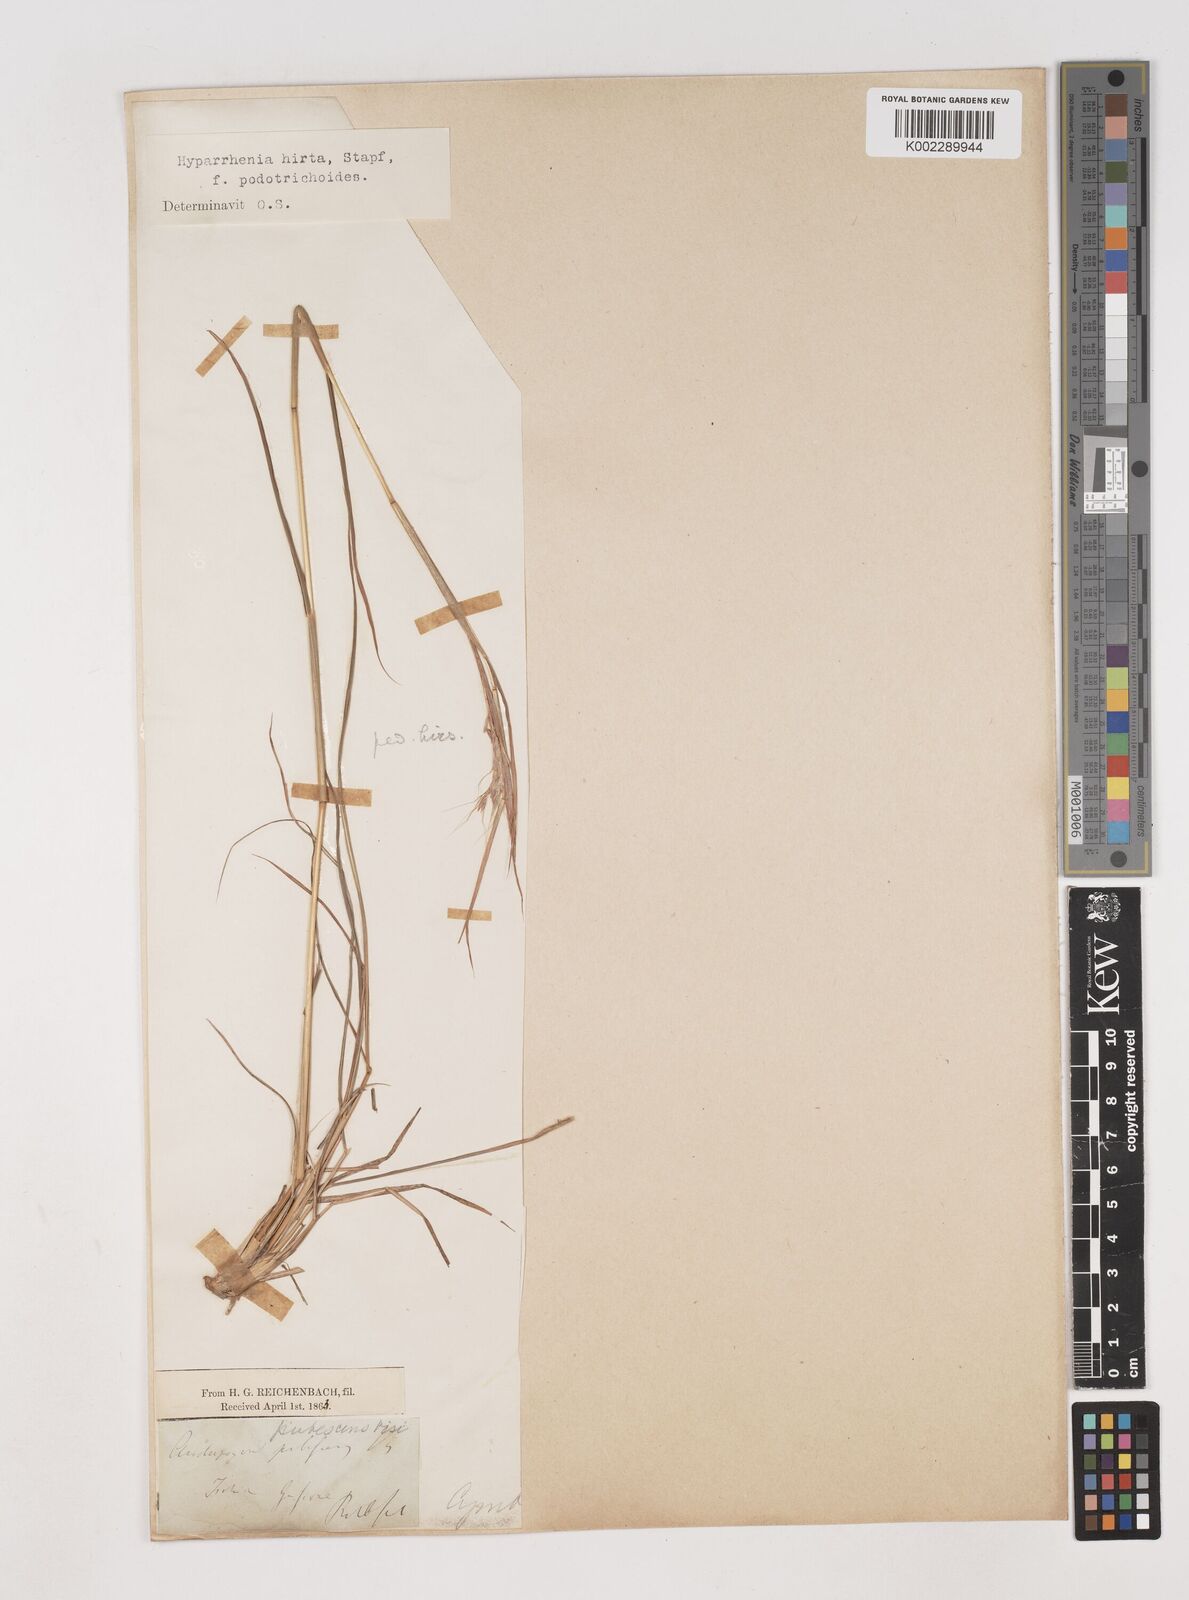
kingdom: Plantae
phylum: Tracheophyta
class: Liliopsida
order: Poales
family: Poaceae
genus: Hyparrhenia
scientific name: Hyparrhenia hirta
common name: Thatching grass
